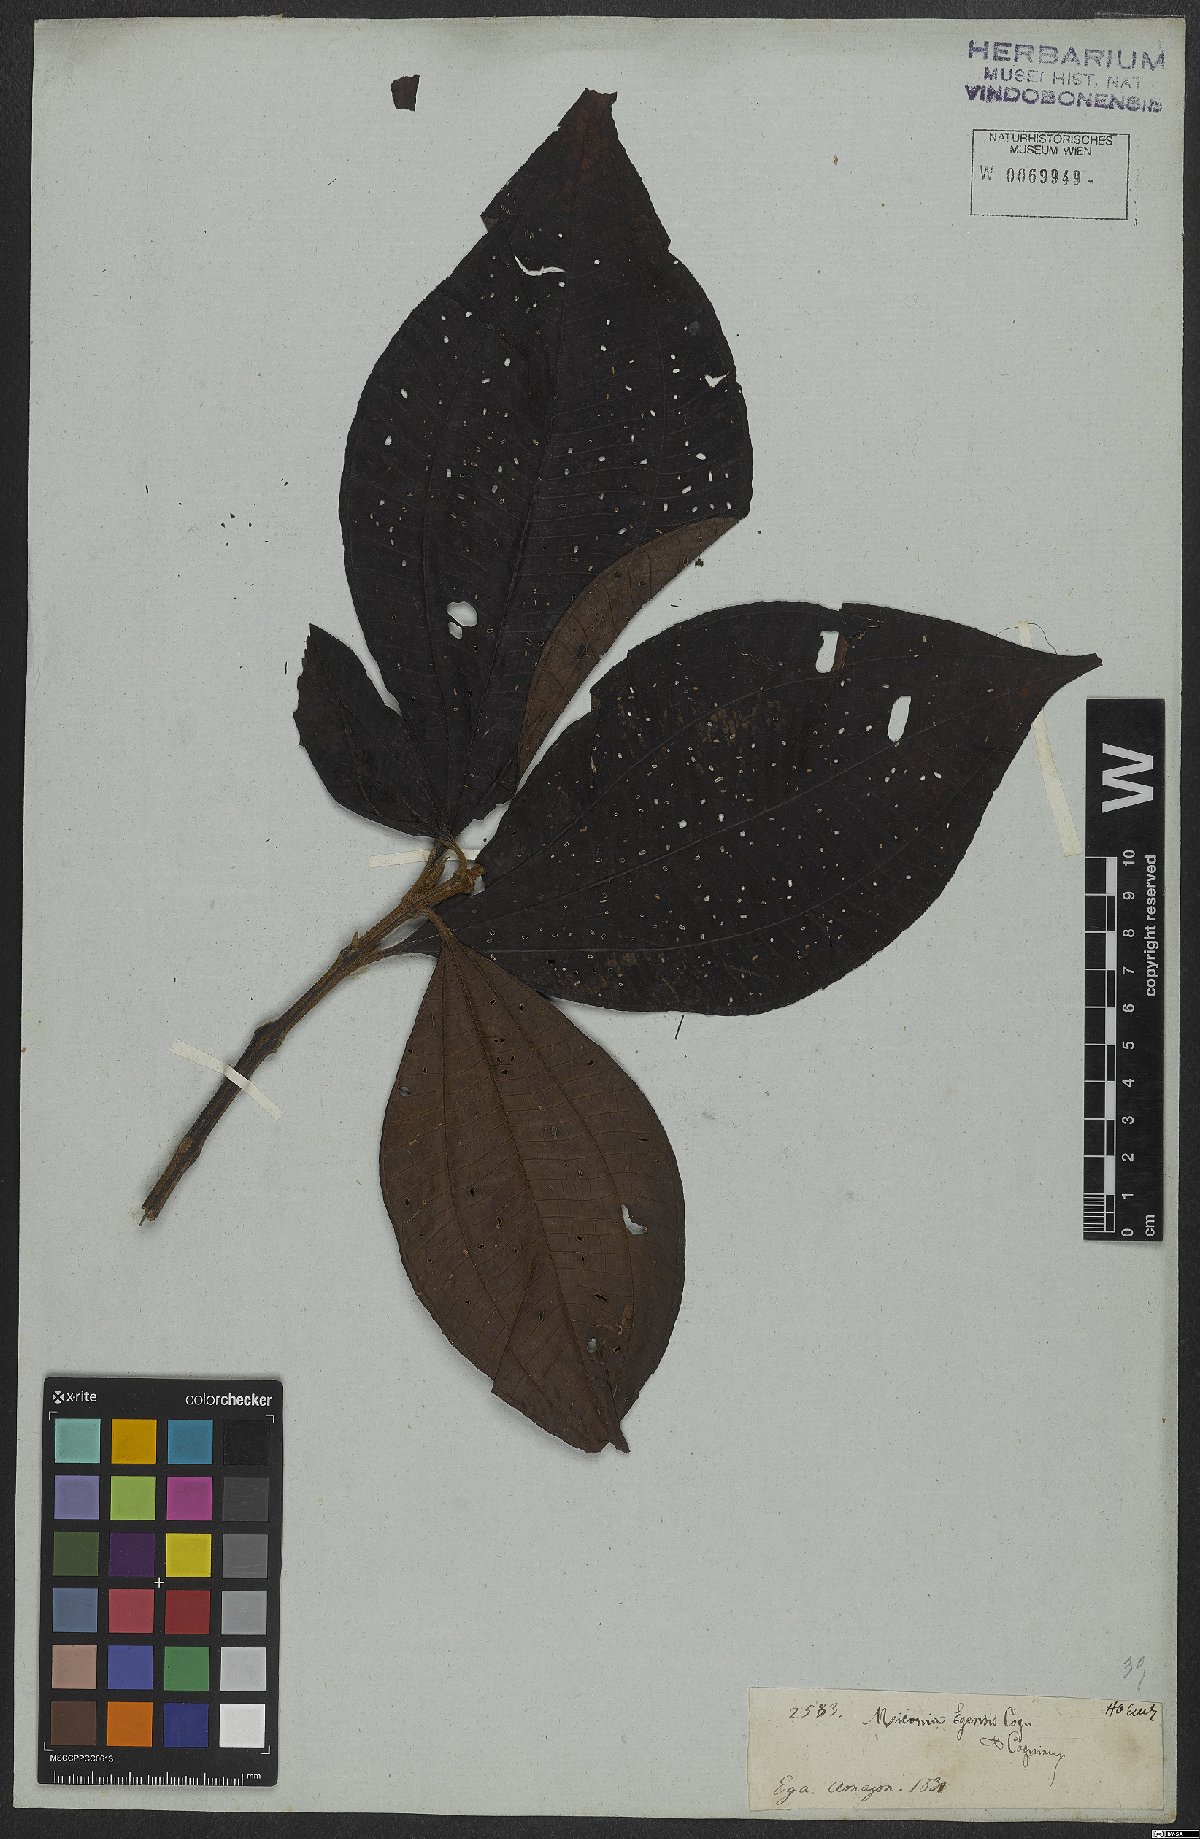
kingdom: Plantae
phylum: Tracheophyta
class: Magnoliopsida
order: Myrtales
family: Melastomataceae
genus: Miconia
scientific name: Miconia egensis
